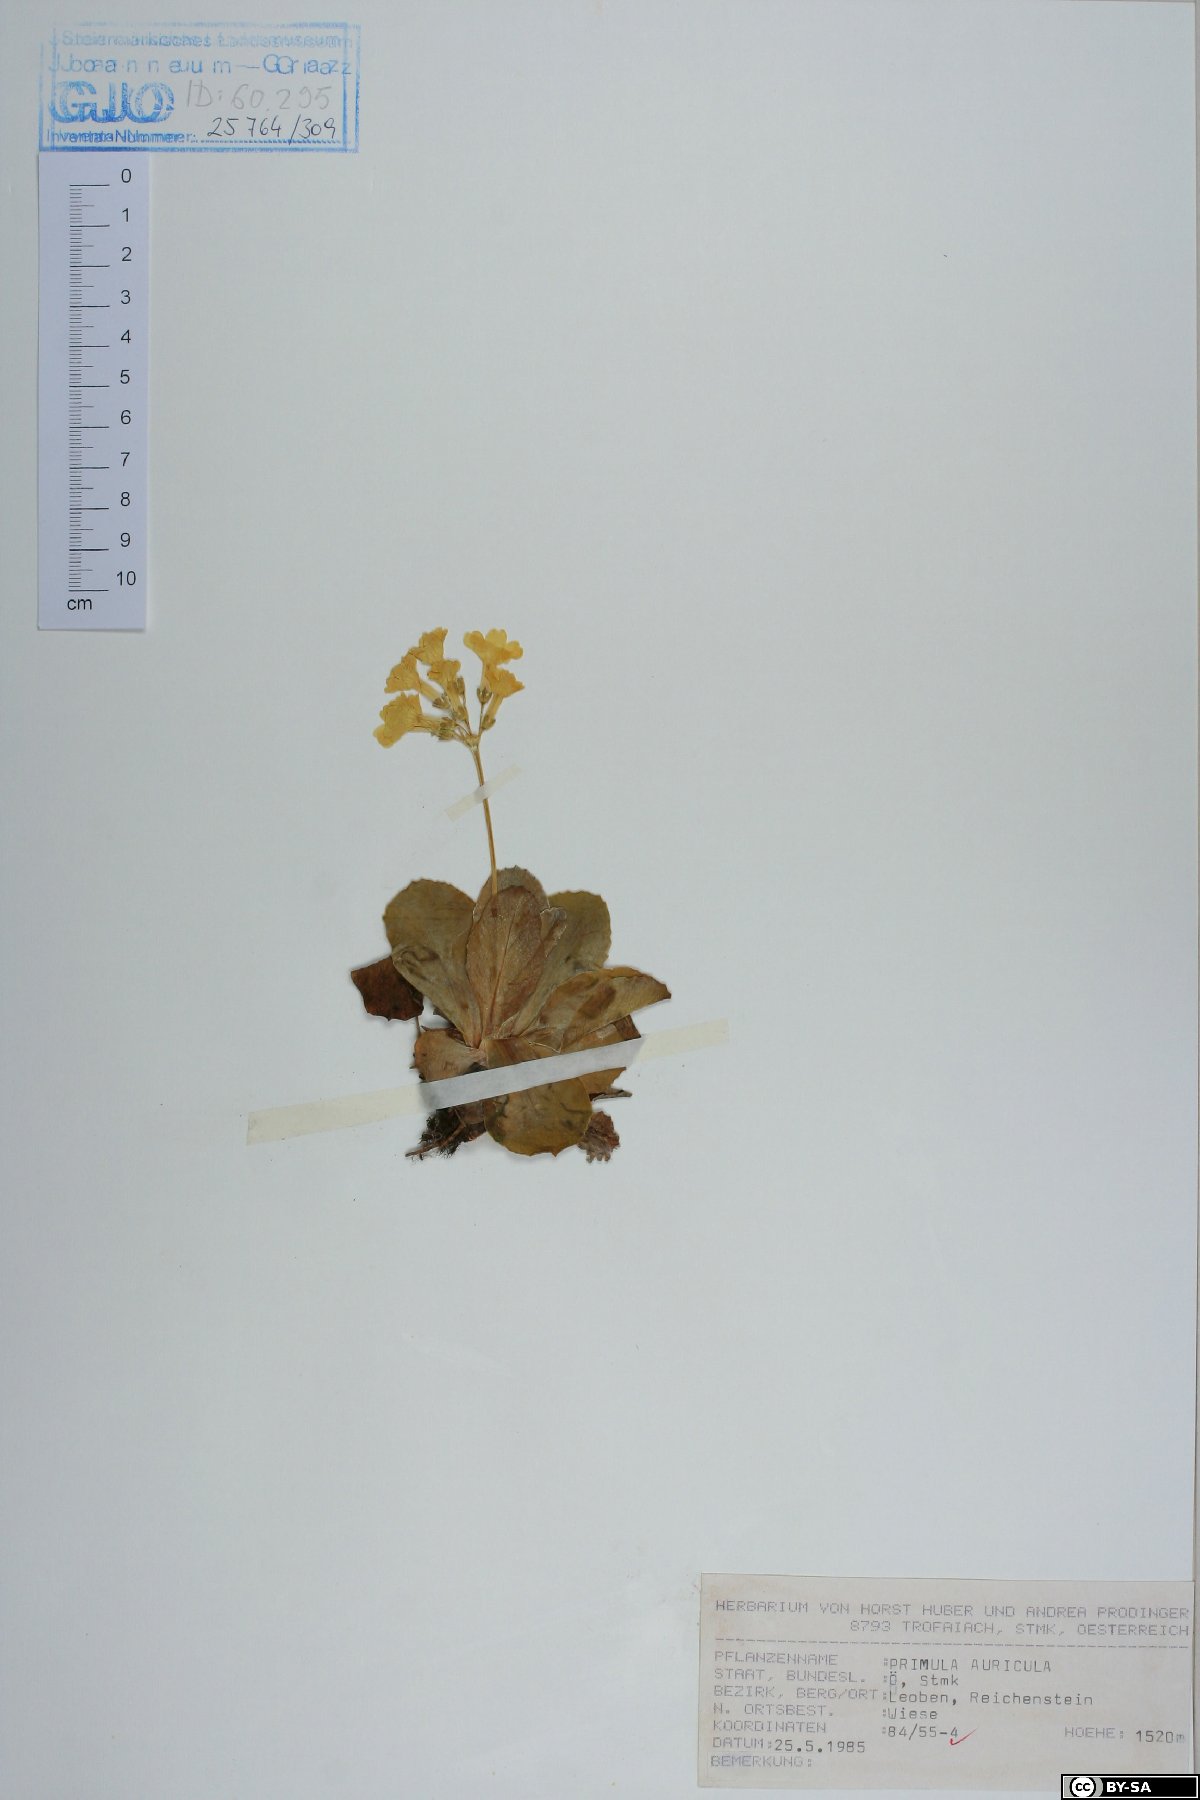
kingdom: Plantae
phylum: Tracheophyta
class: Magnoliopsida
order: Ericales
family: Primulaceae
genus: Primula
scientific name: Primula auricula
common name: Auricula
